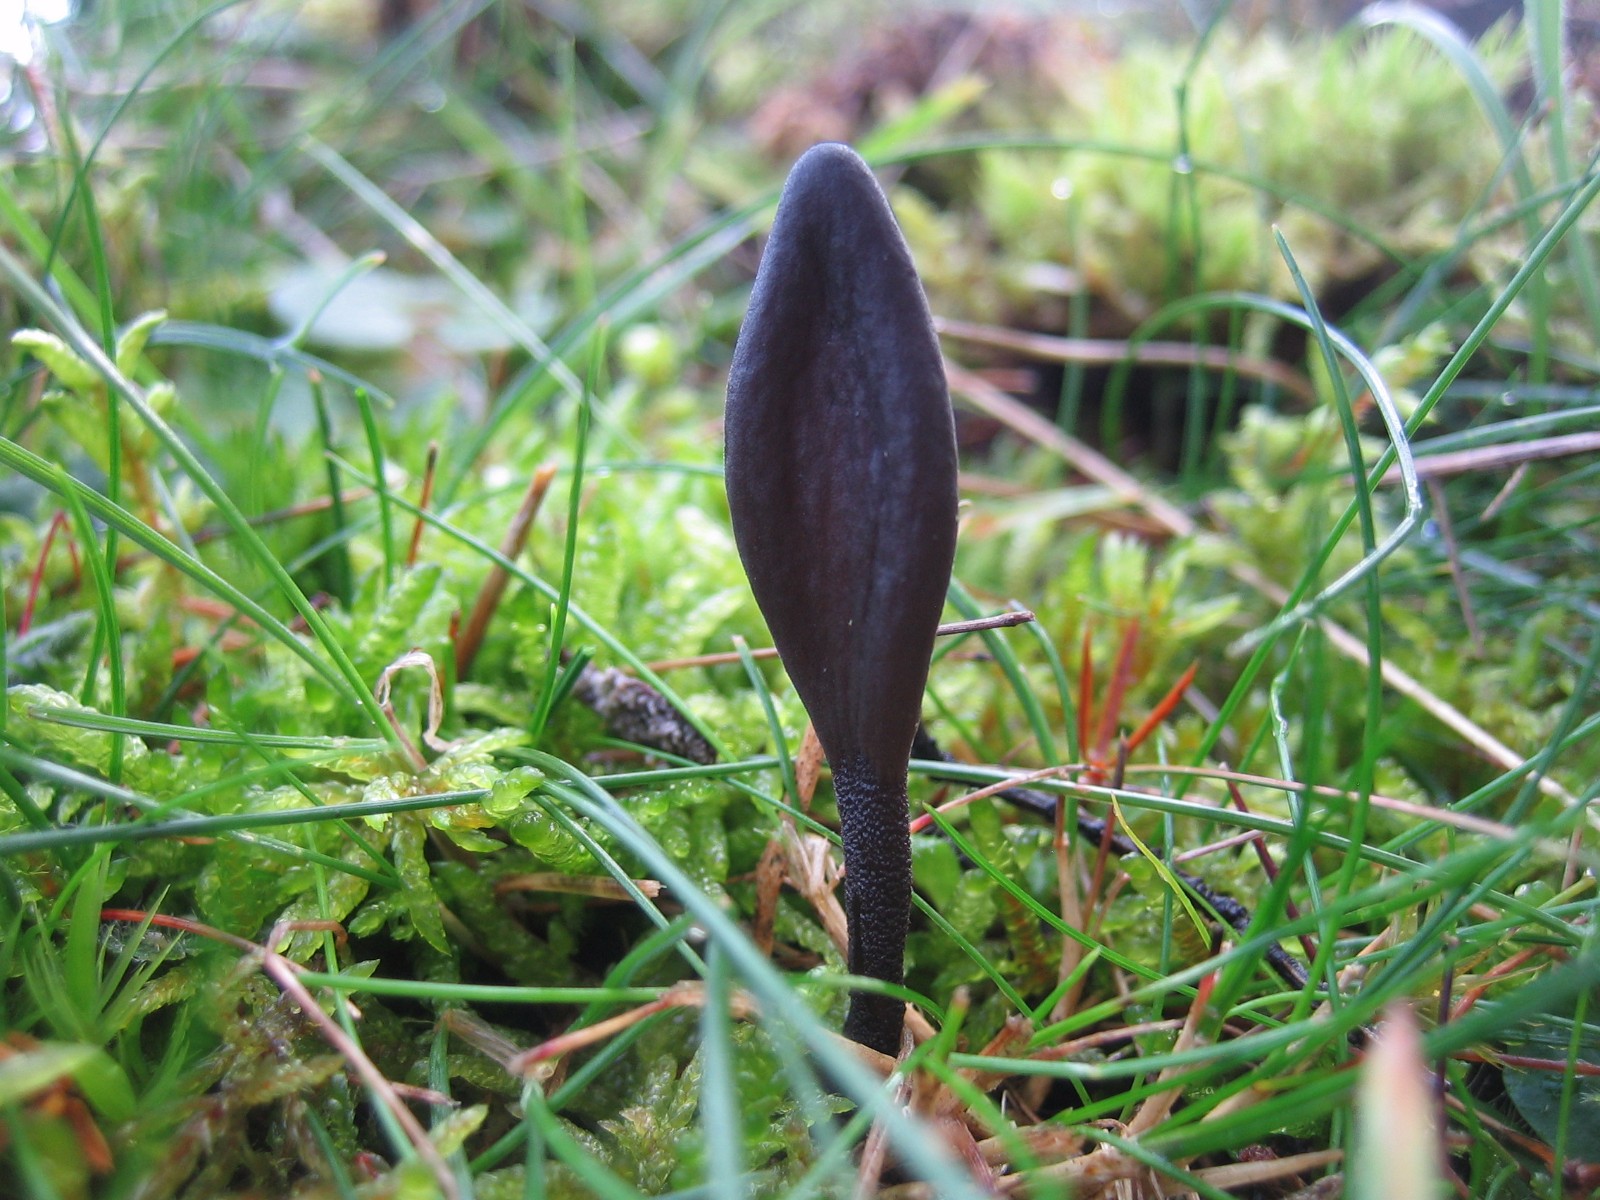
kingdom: Fungi
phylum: Ascomycota
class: Geoglossomycetes
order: Geoglossales
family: Geoglossaceae
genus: Geoglossum
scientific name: Geoglossum
